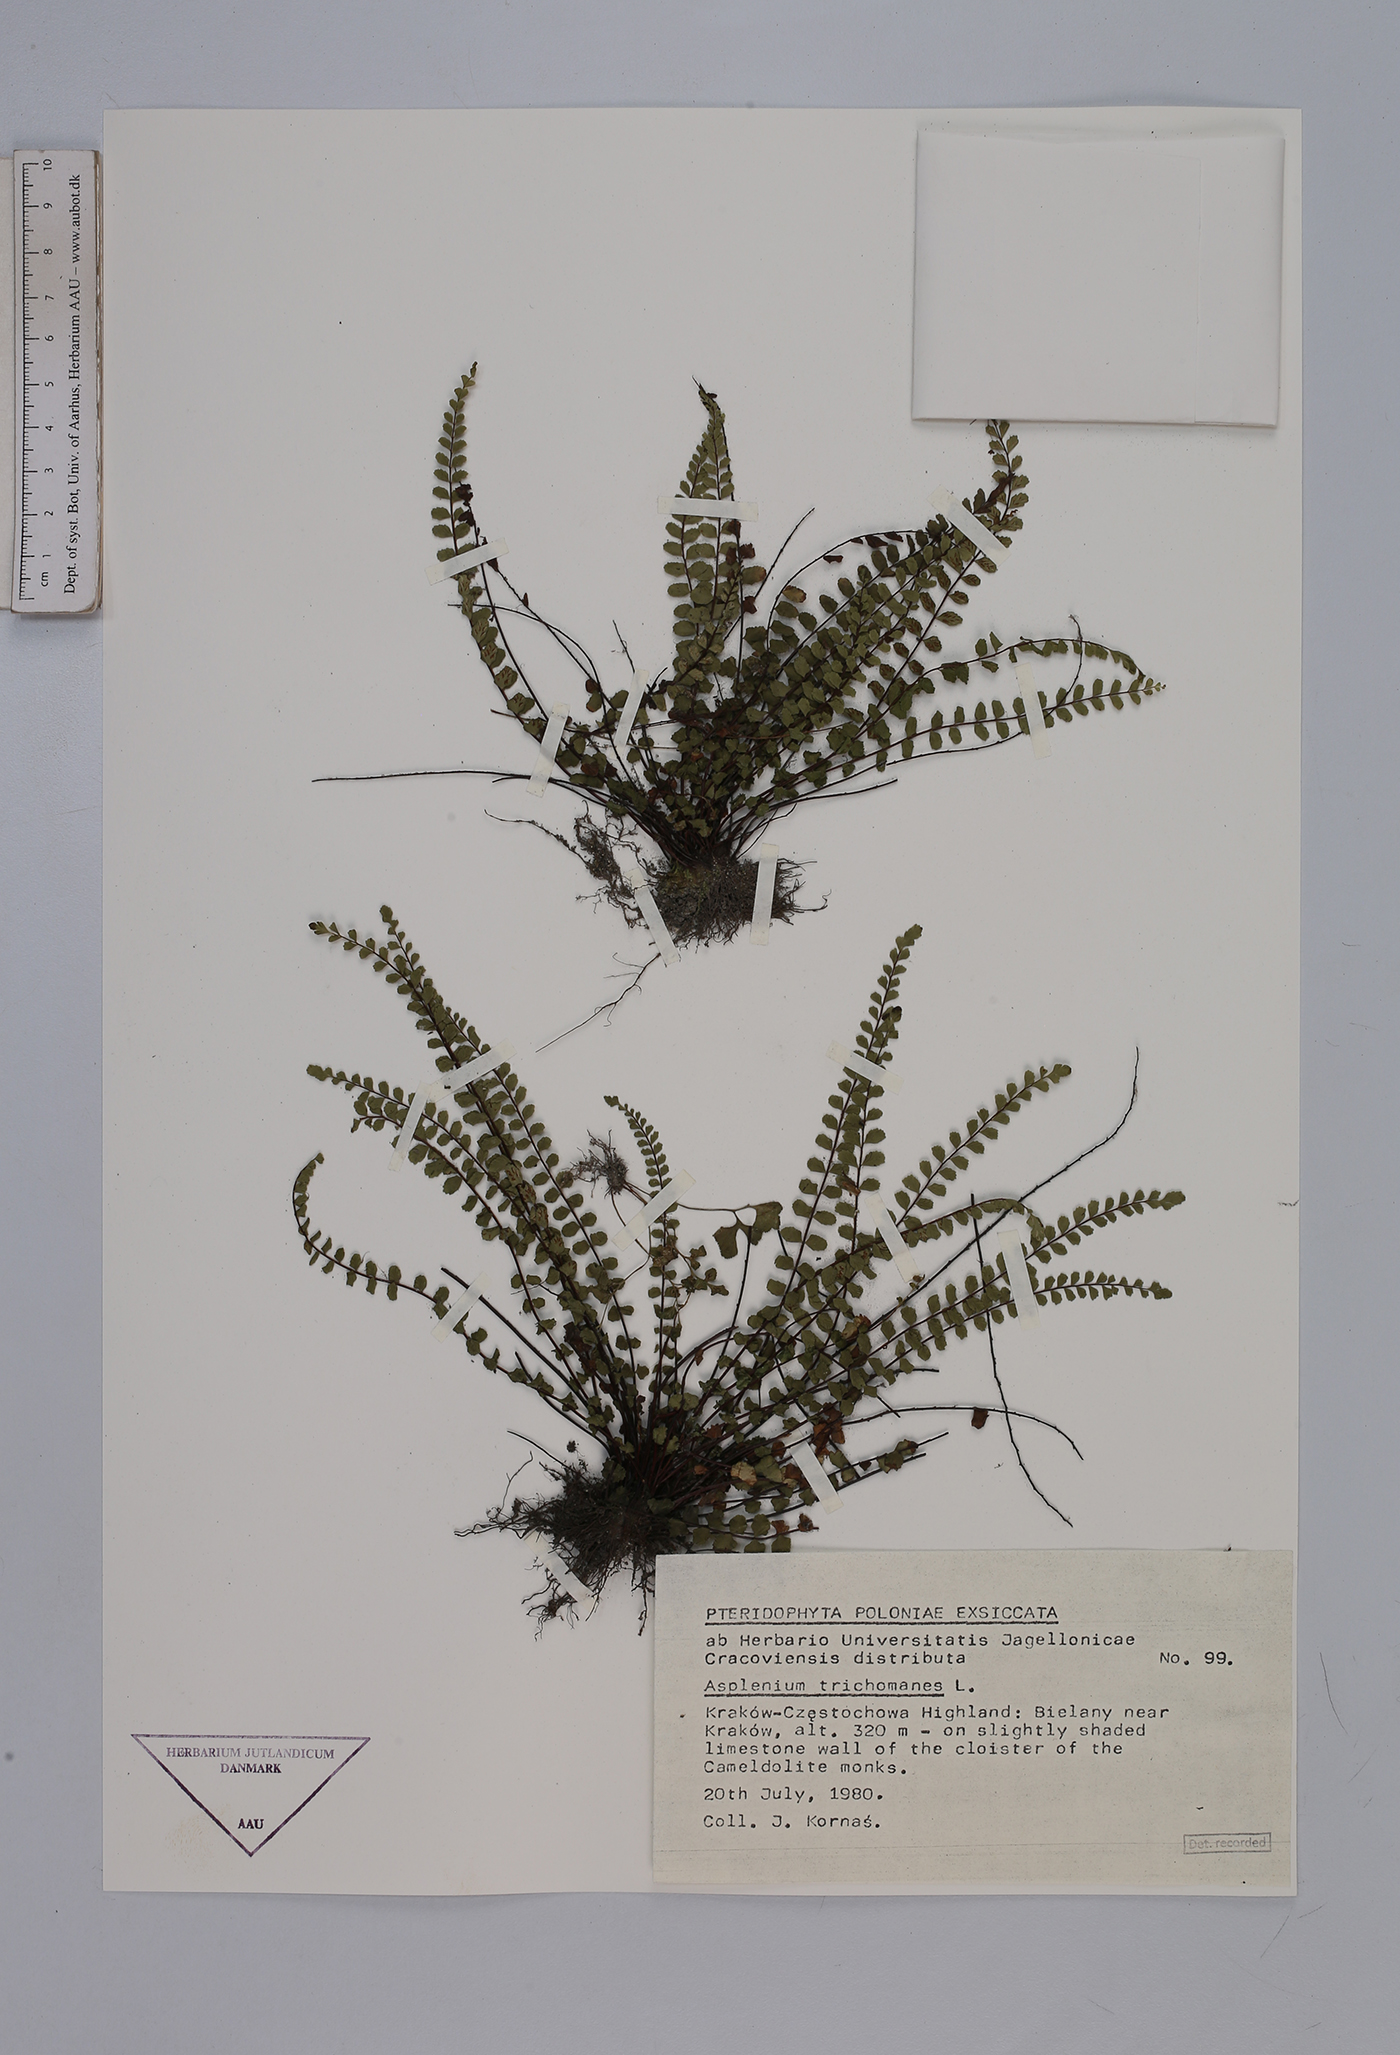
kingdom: Plantae
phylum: Tracheophyta
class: Polypodiopsida
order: Polypodiales
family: Aspleniaceae
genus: Asplenium
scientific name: Asplenium trichomanes
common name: Maidenhair spleenwort
